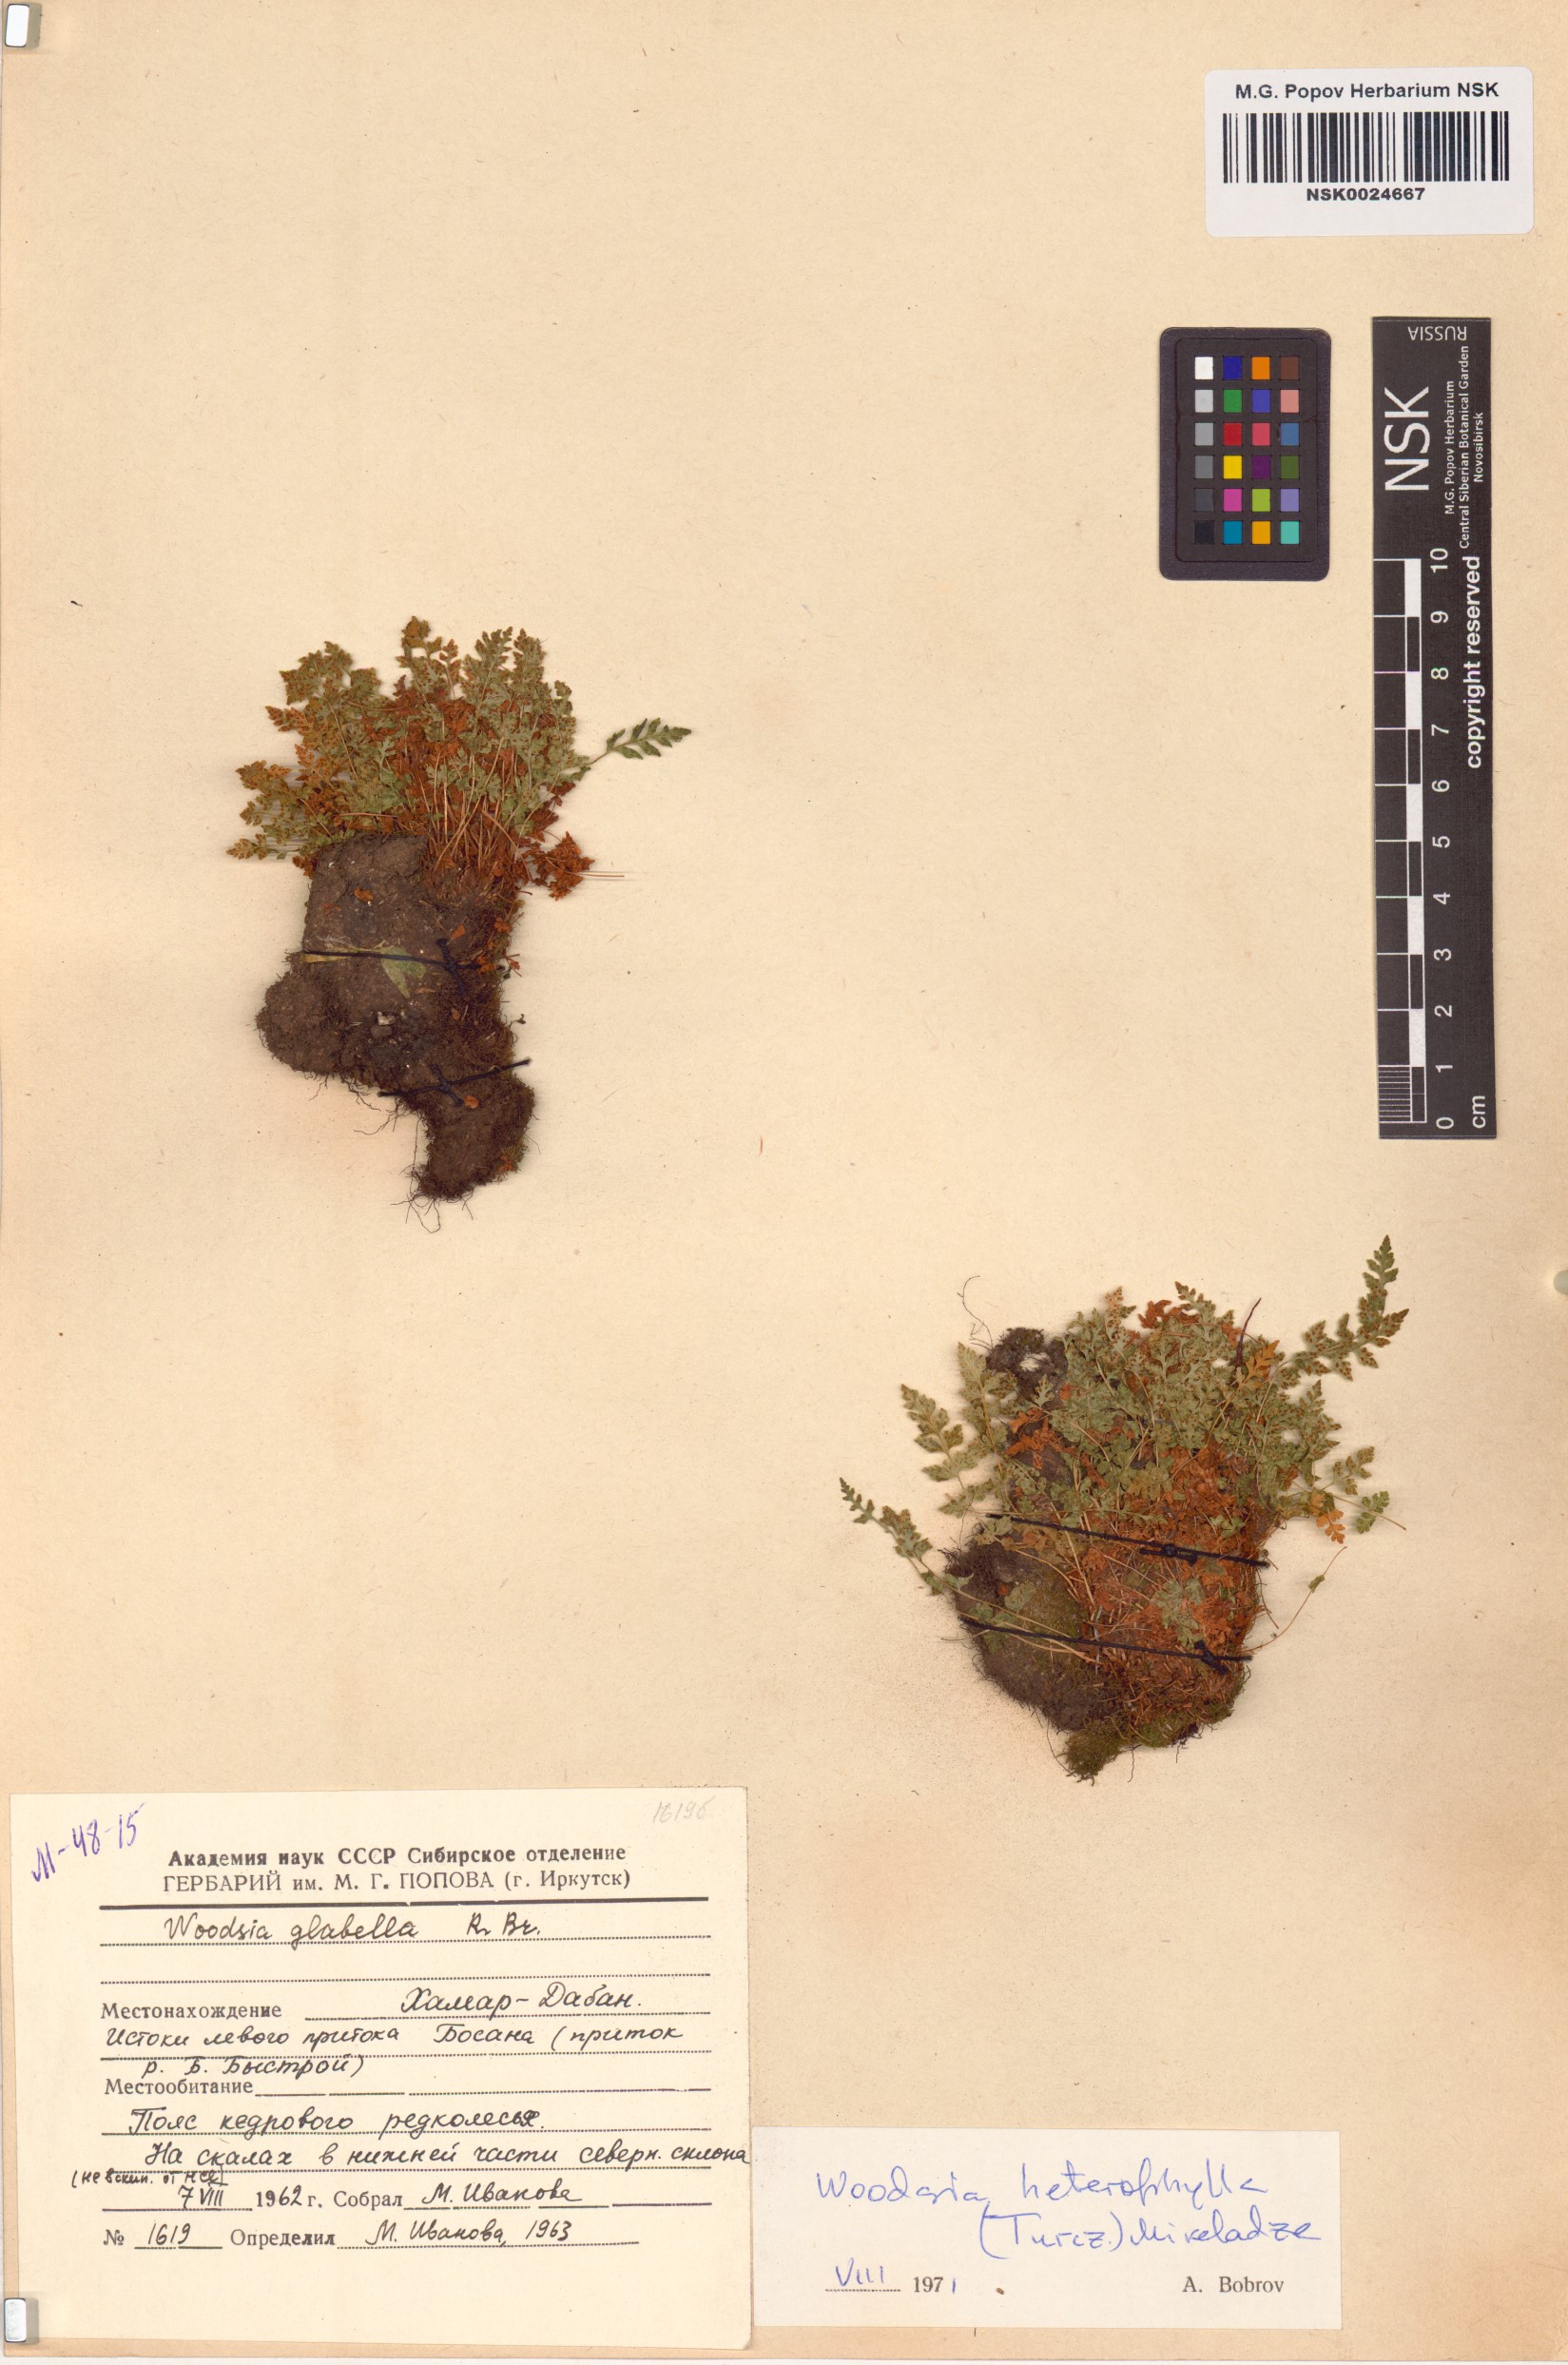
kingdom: Plantae
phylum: Tracheophyta
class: Polypodiopsida
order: Polypodiales
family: Woodsiaceae
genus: Woodsia
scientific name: Woodsia pulchella
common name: Graceful woodsia
